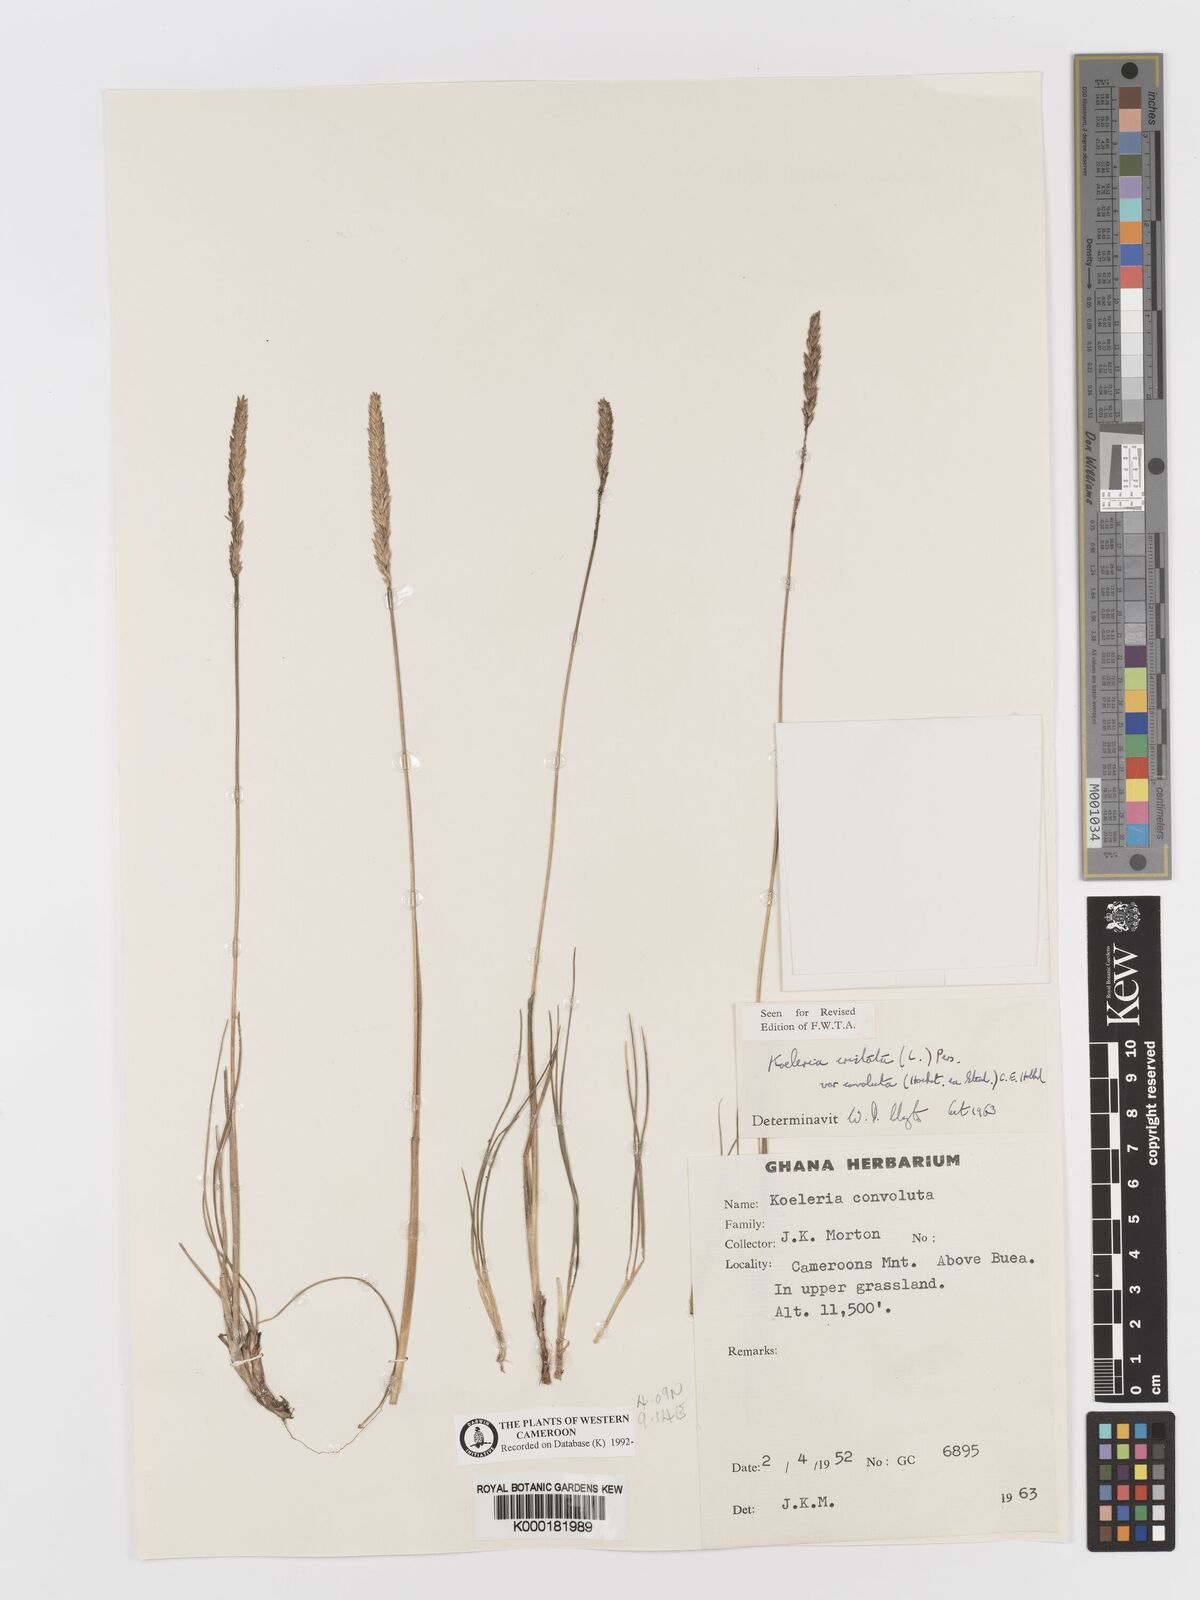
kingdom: Plantae
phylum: Tracheophyta
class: Liliopsida
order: Poales
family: Poaceae
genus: Koeleria
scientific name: Koeleria capensis
